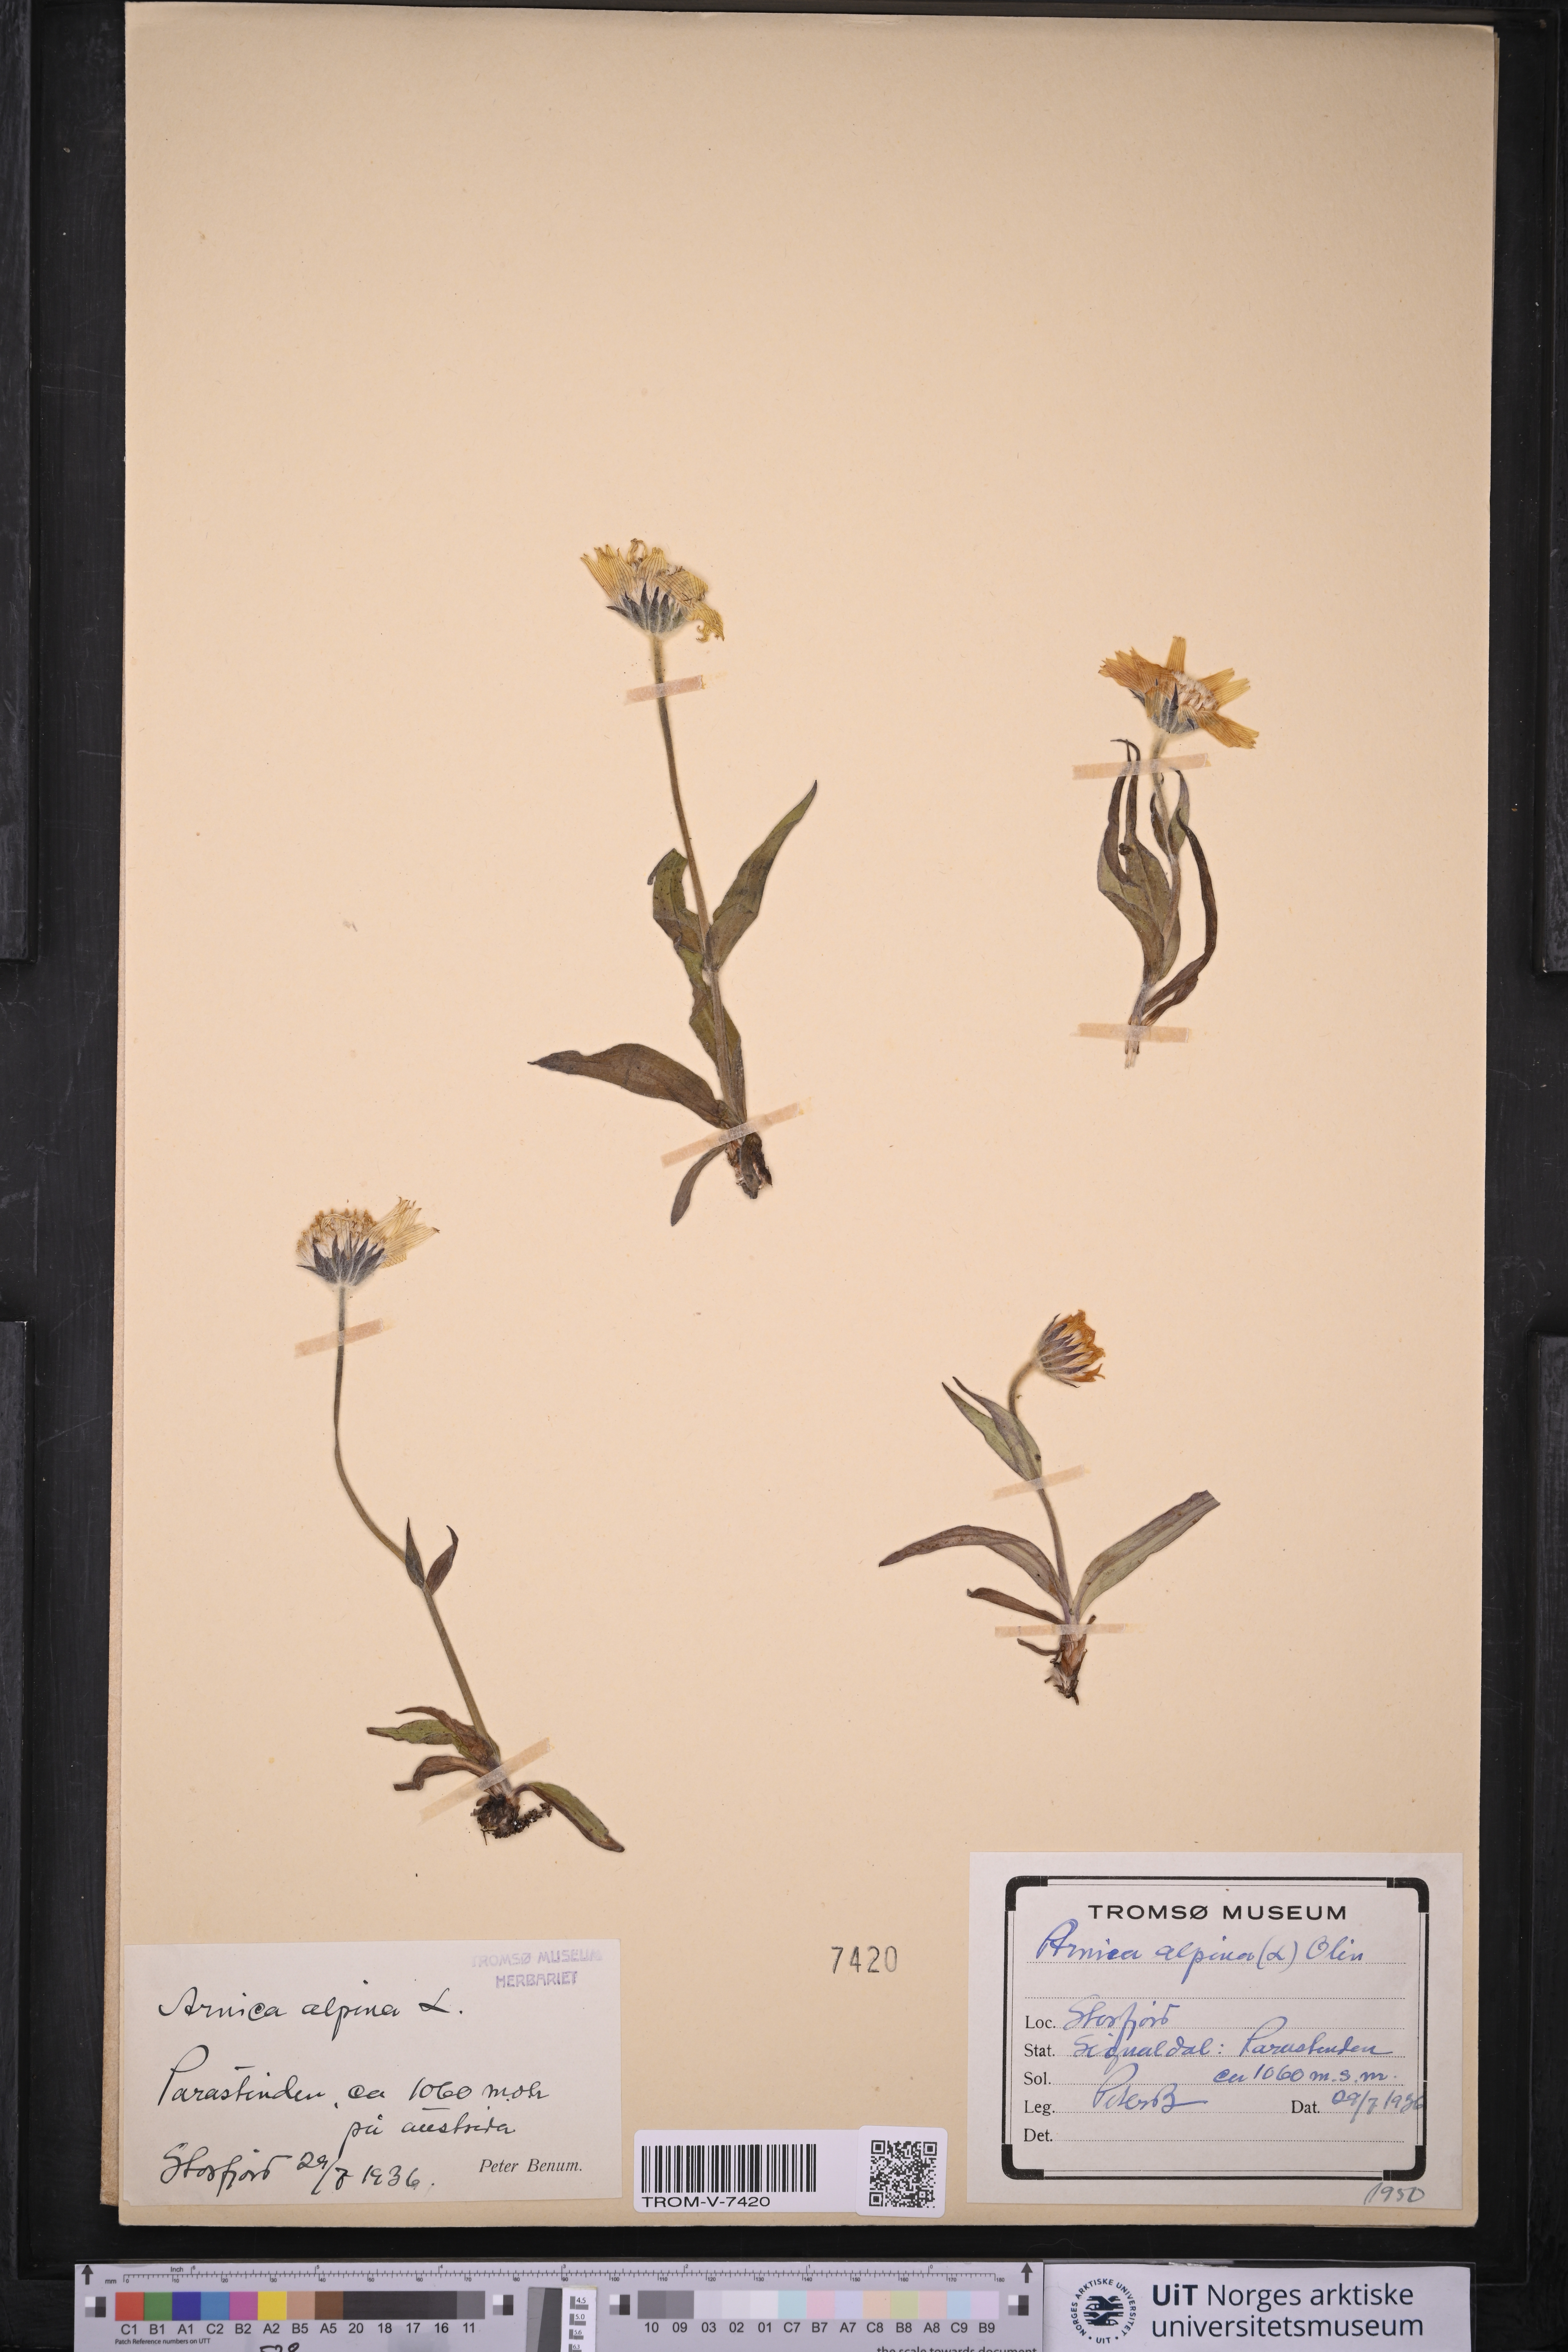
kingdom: Plantae
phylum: Tracheophyta
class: Magnoliopsida
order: Asterales
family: Asteraceae
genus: Arnica
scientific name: Arnica angustifolia
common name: Arctic arnica
